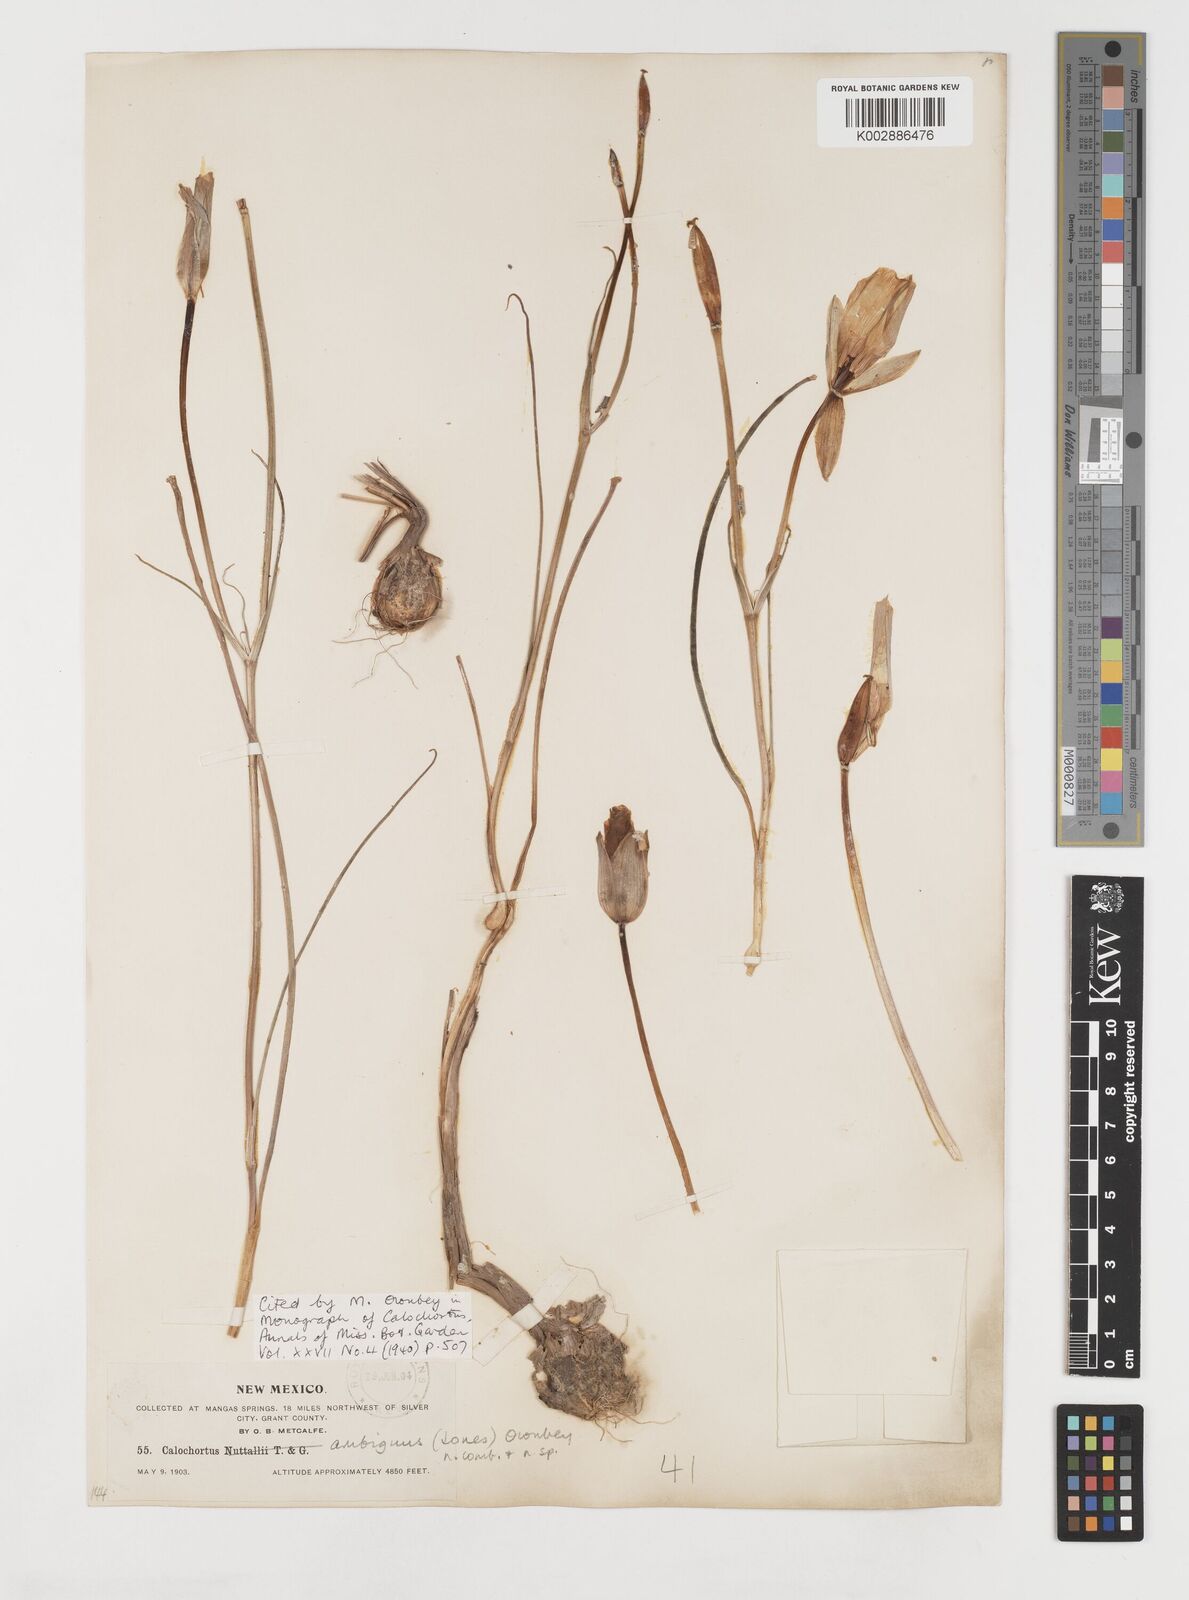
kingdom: Plantae
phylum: Tracheophyta
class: Liliopsida
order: Liliales
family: Liliaceae
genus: Calochortus
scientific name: Calochortus ambiguus
